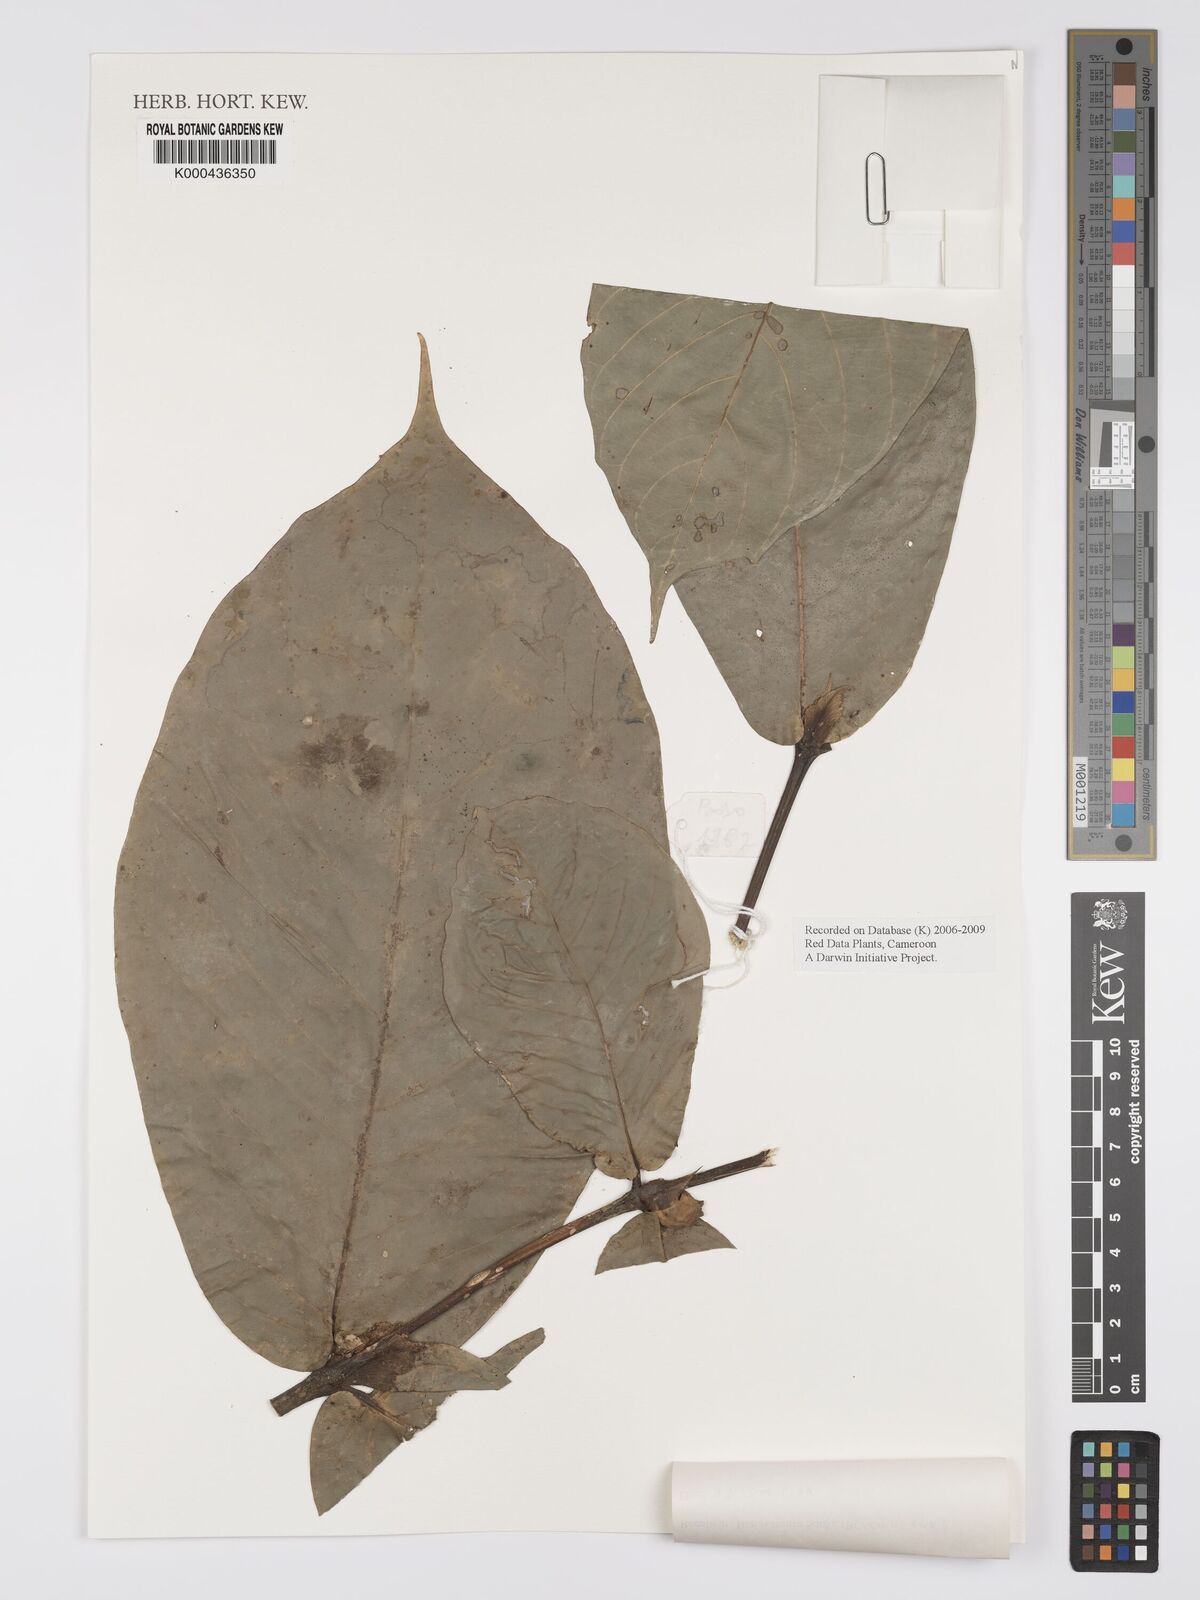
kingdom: Plantae
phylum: Tracheophyta
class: Magnoliopsida
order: Gentianales
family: Rubiaceae
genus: Belonophora
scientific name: Belonophora talbotii
